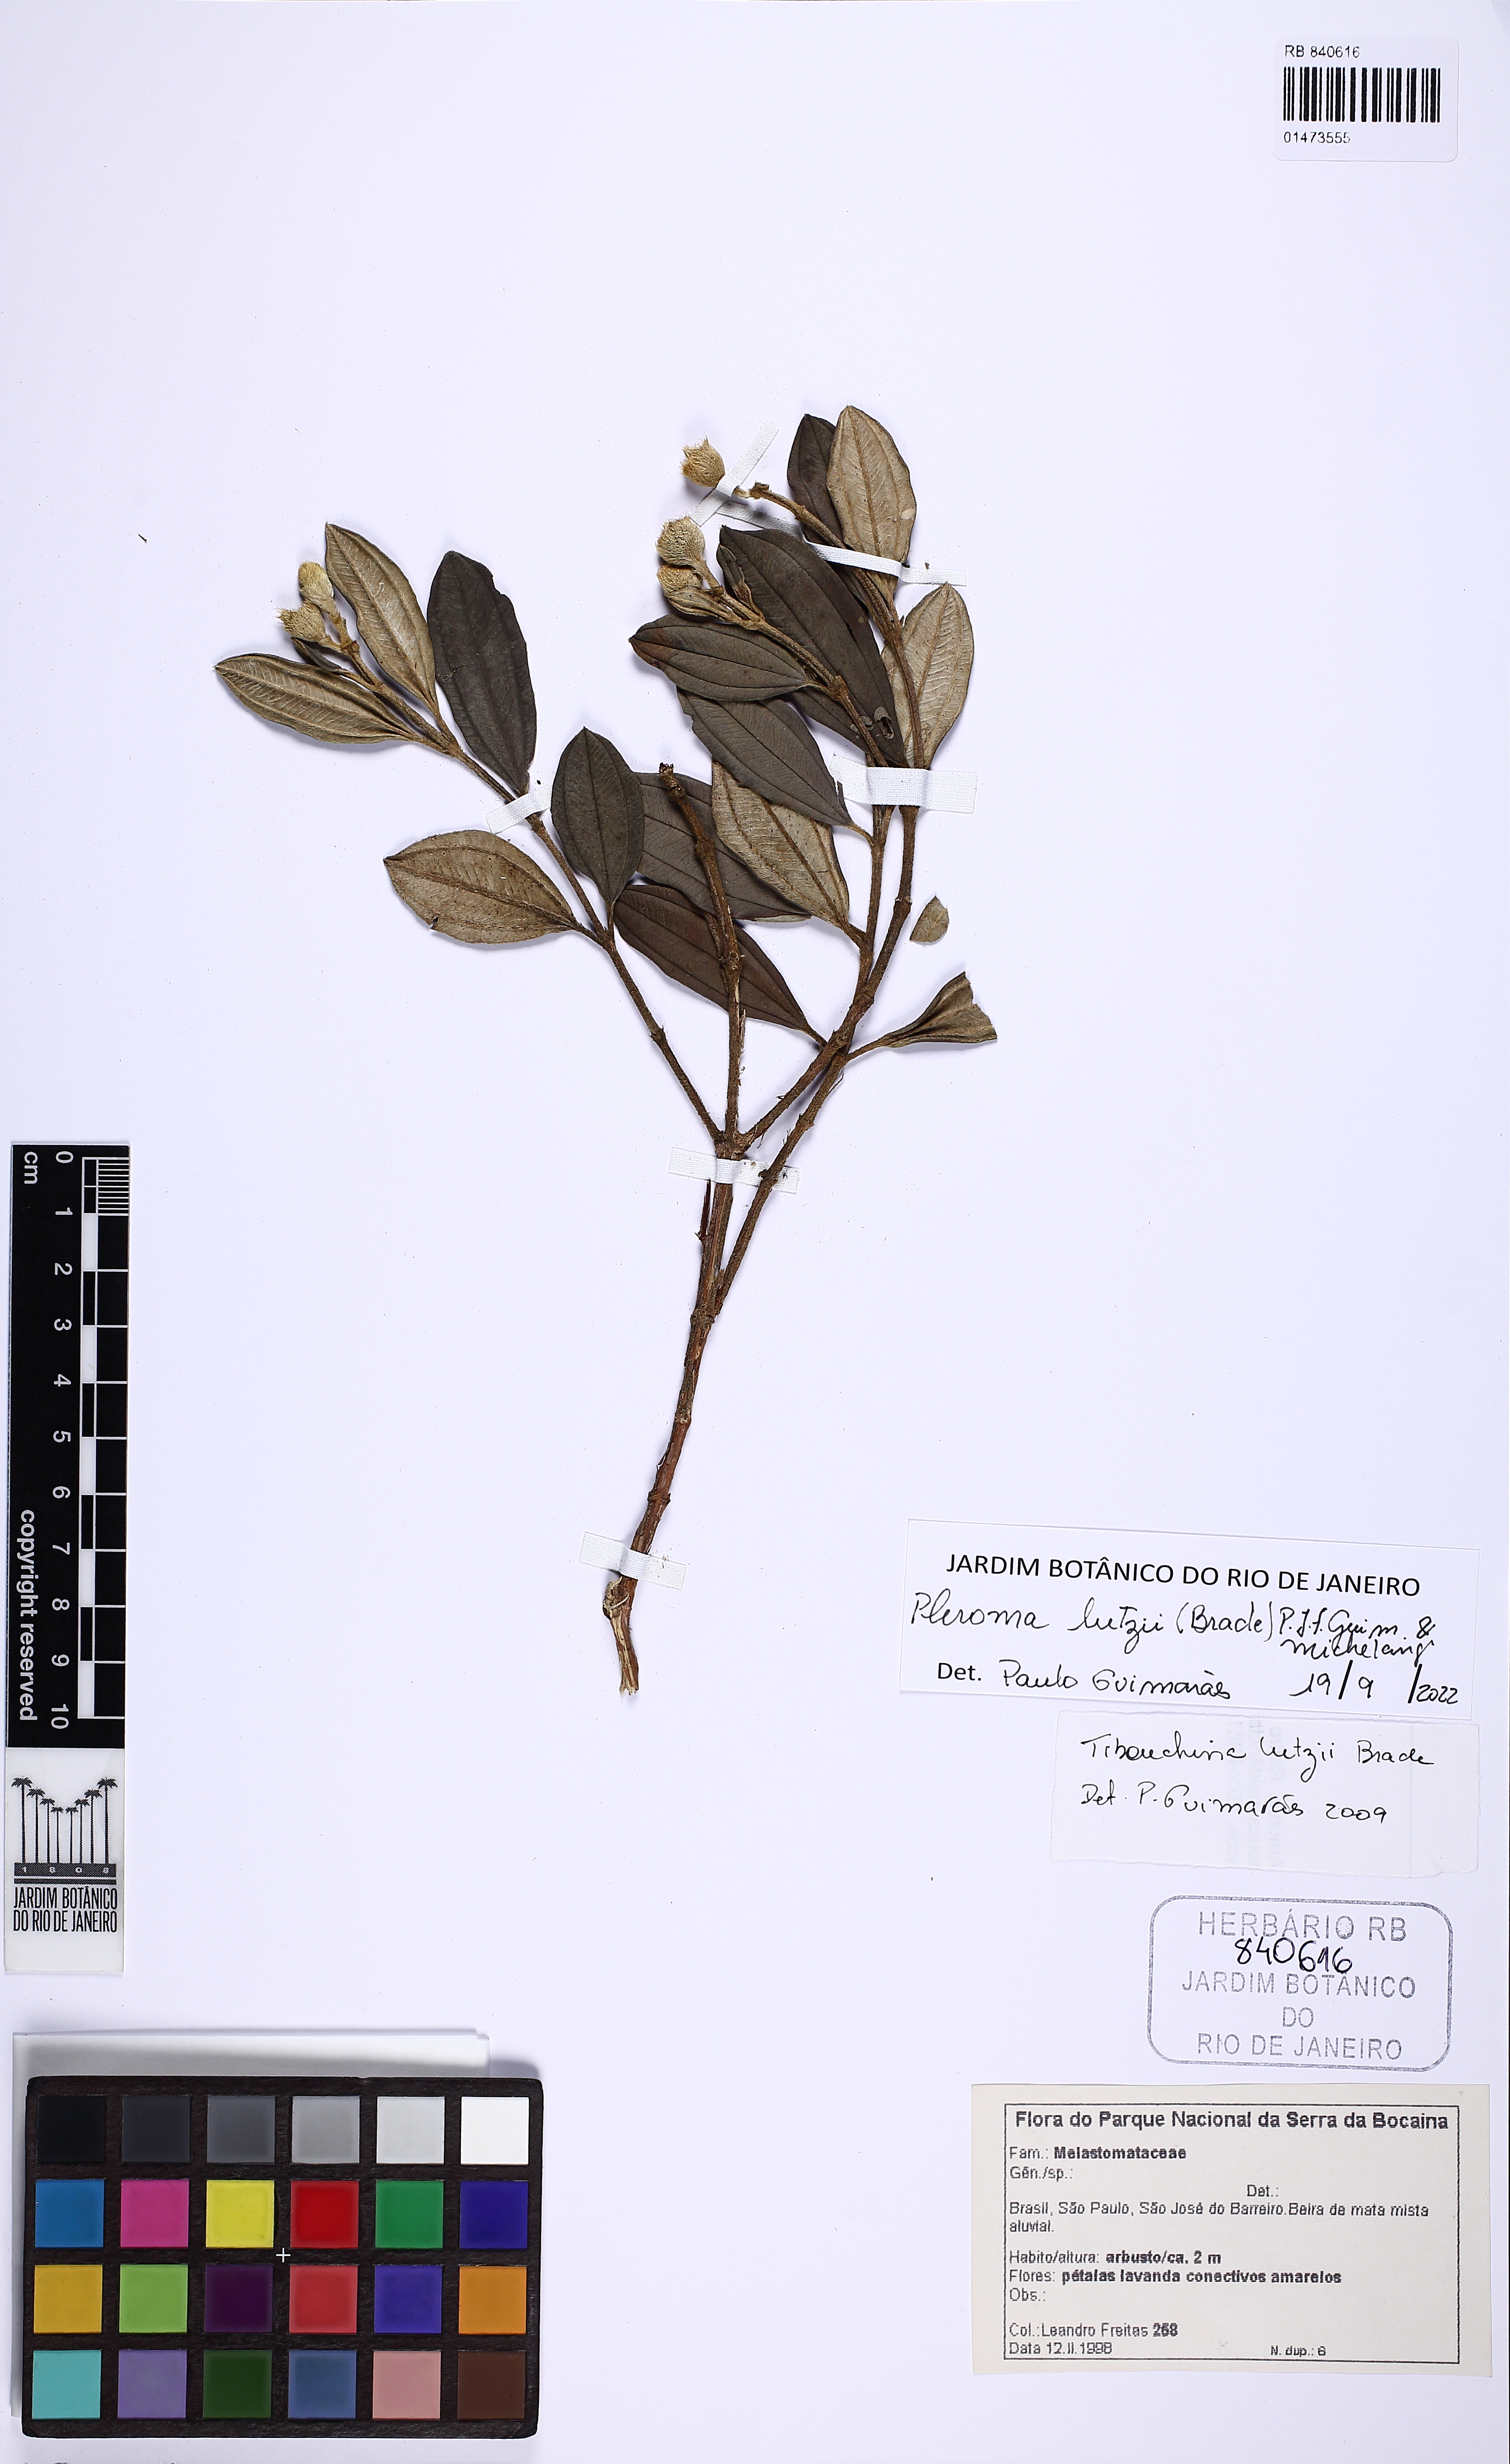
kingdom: Plantae
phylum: Tracheophyta
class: Magnoliopsida
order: Myrtales
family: Melastomataceae
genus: Pleroma
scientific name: Pleroma lutzii
